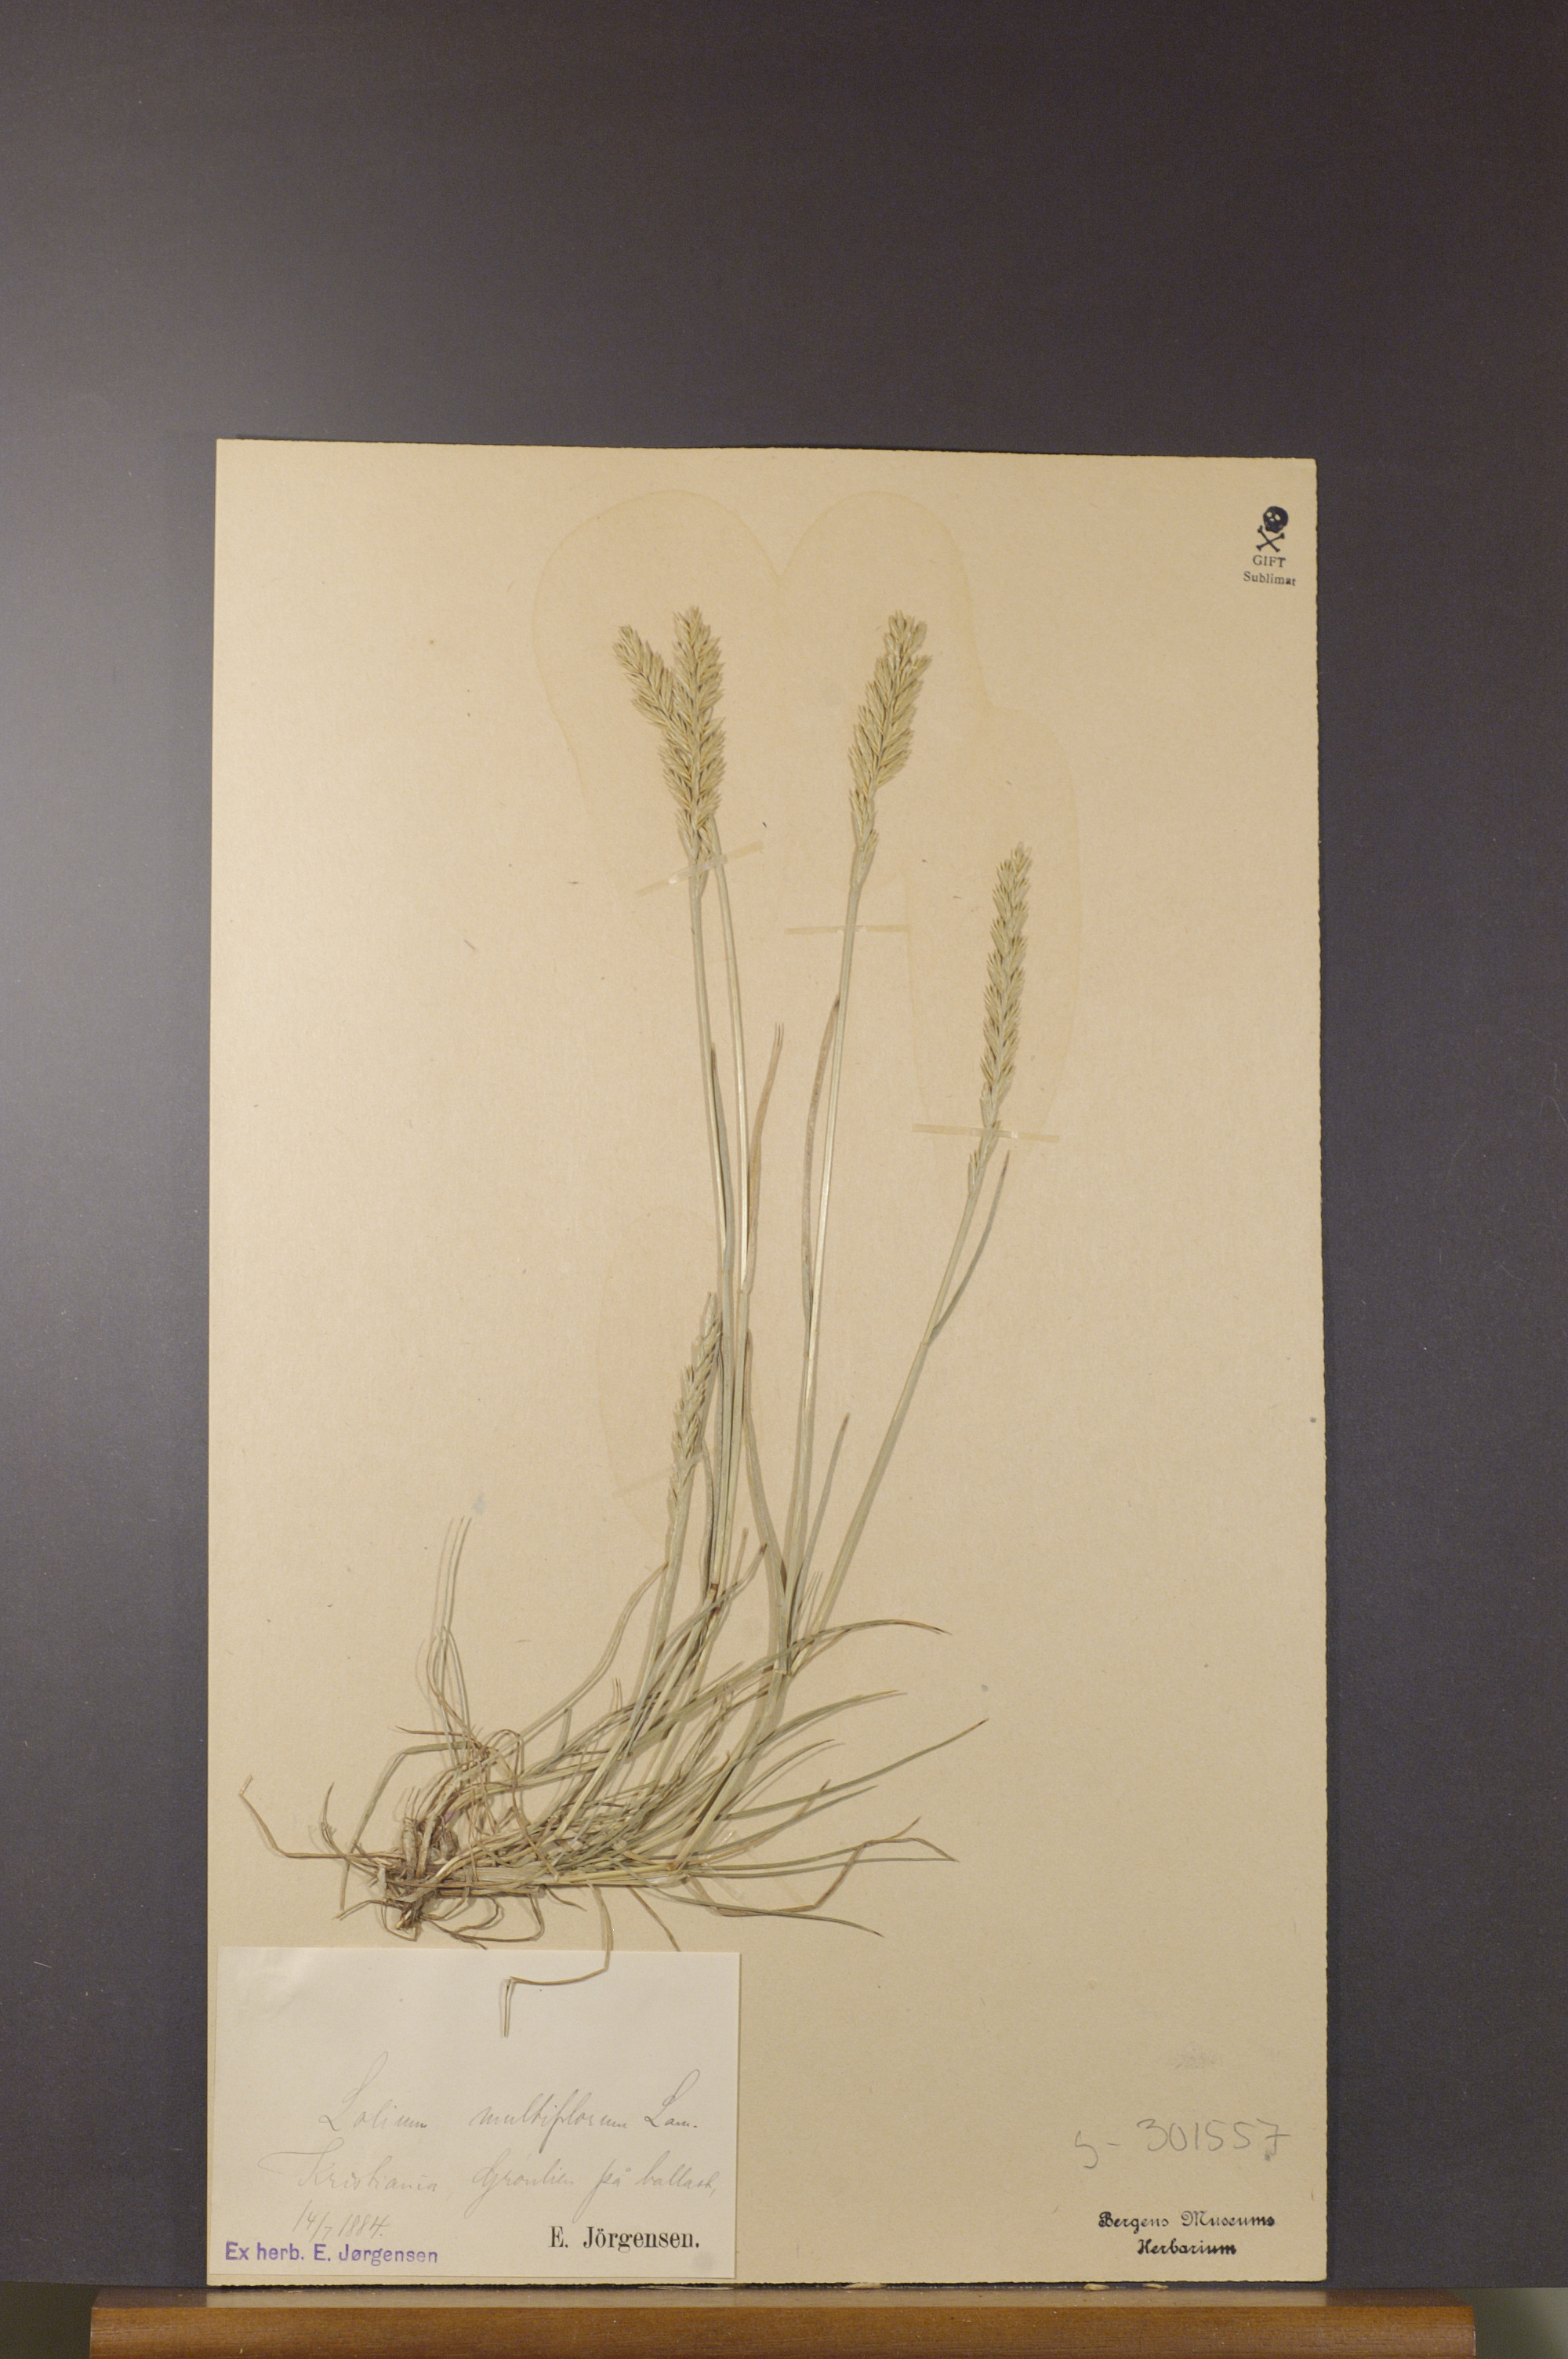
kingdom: Plantae
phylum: Tracheophyta
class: Liliopsida
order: Poales
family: Poaceae
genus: Lolium
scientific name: Lolium multiflorum
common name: Annual ryegrass
